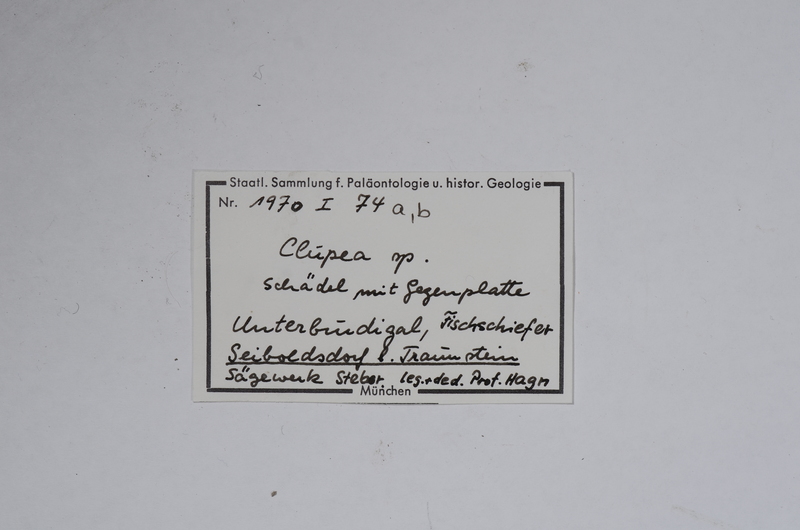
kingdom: Animalia
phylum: Chordata
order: Clupeiformes
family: Clupeidae
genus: Clupea
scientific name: Clupea
